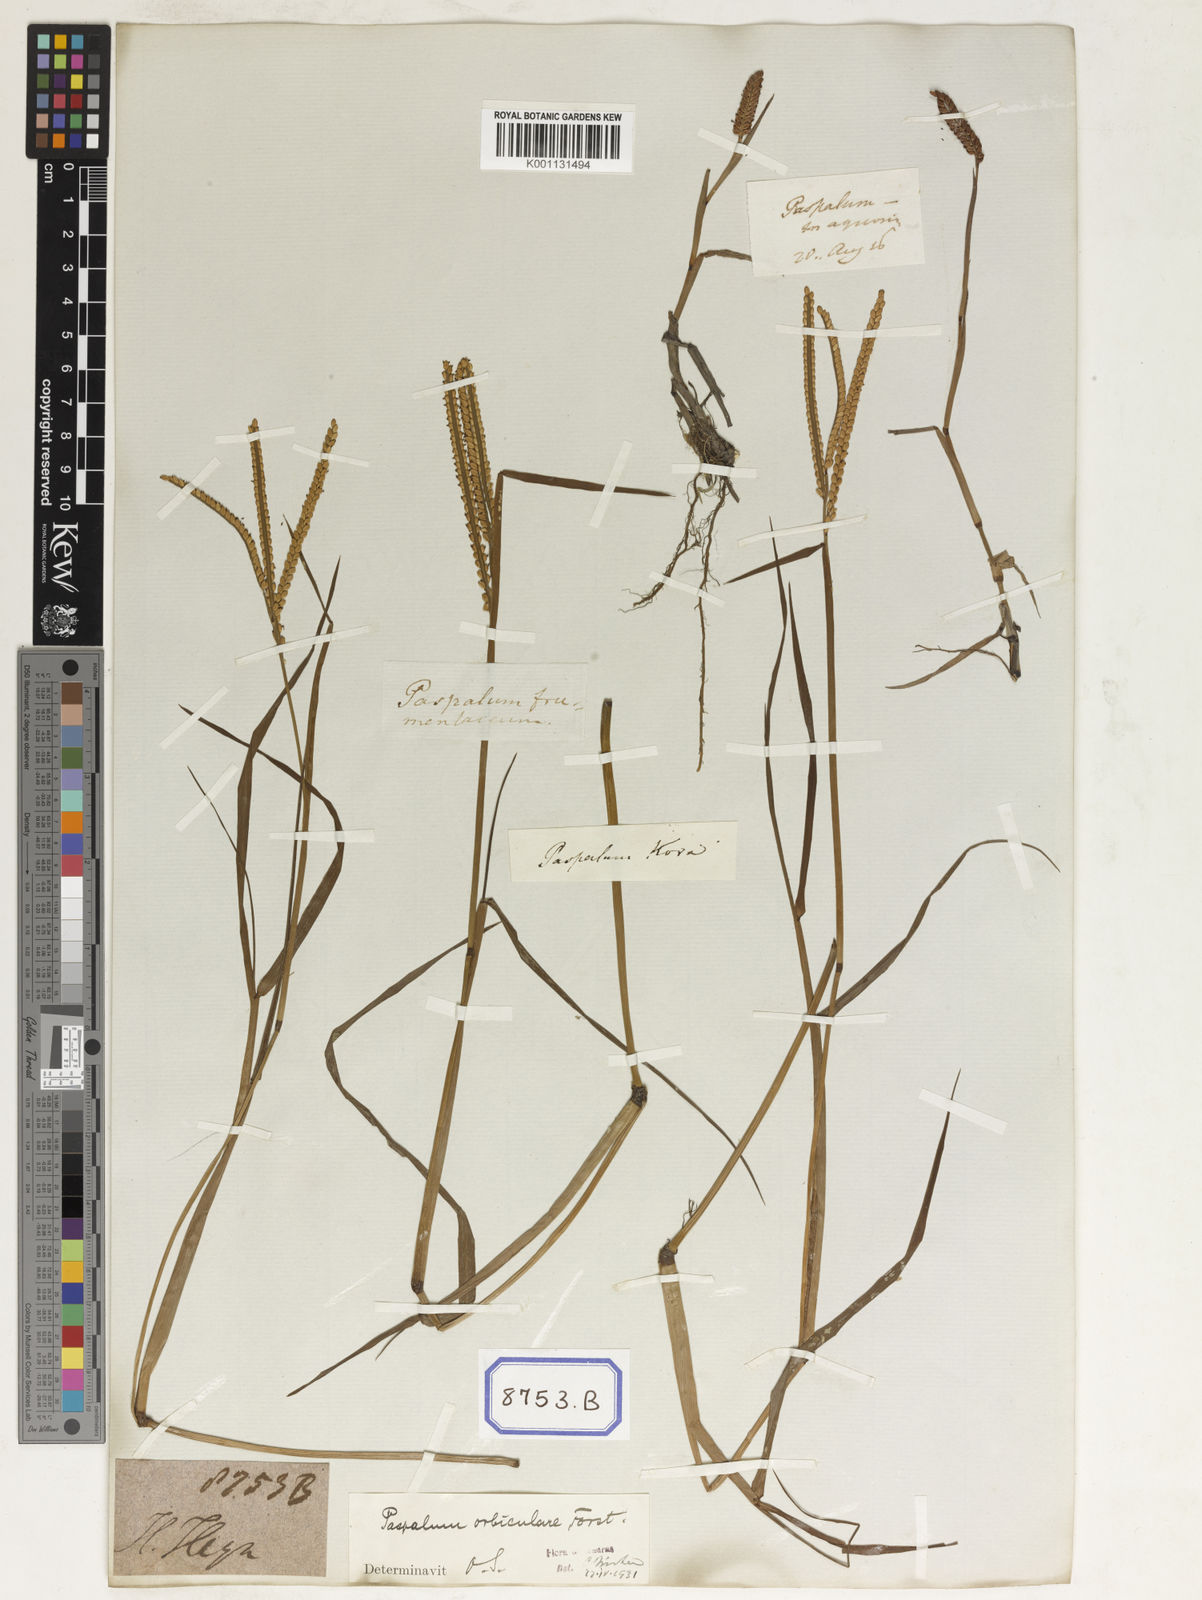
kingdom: Plantae
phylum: Tracheophyta
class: Liliopsida
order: Poales
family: Poaceae
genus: Paspalum
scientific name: Paspalum scrobiculatum
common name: Kodo millet
